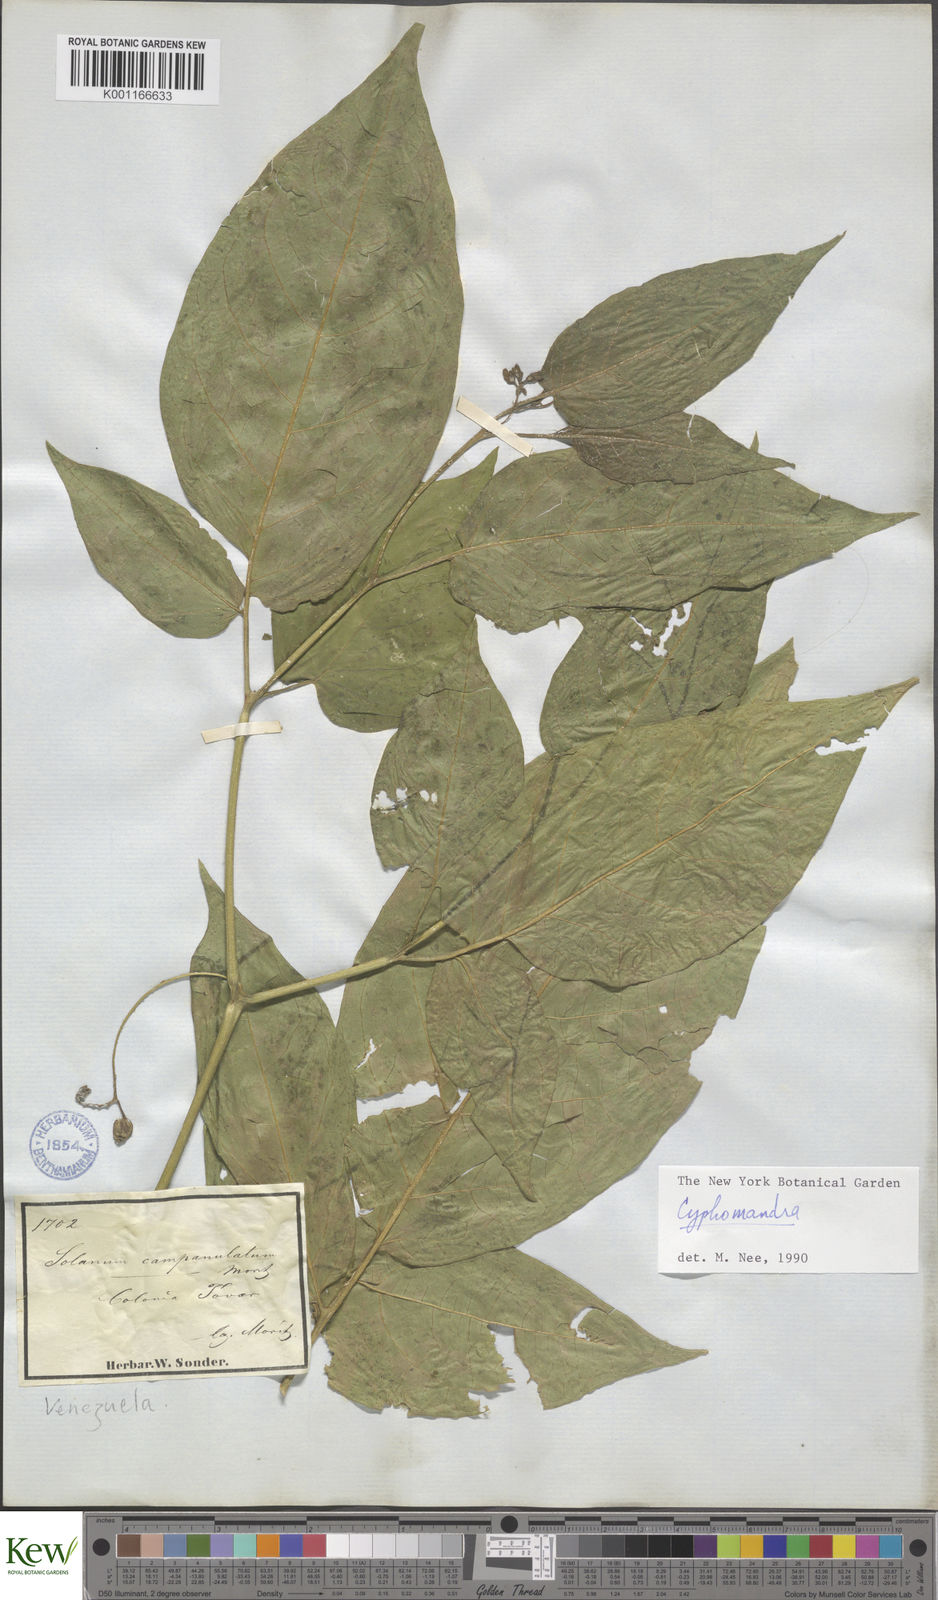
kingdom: Plantae
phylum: Tracheophyta
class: Magnoliopsida
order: Solanales
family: Solanaceae
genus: Solanum
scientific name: Solanum
